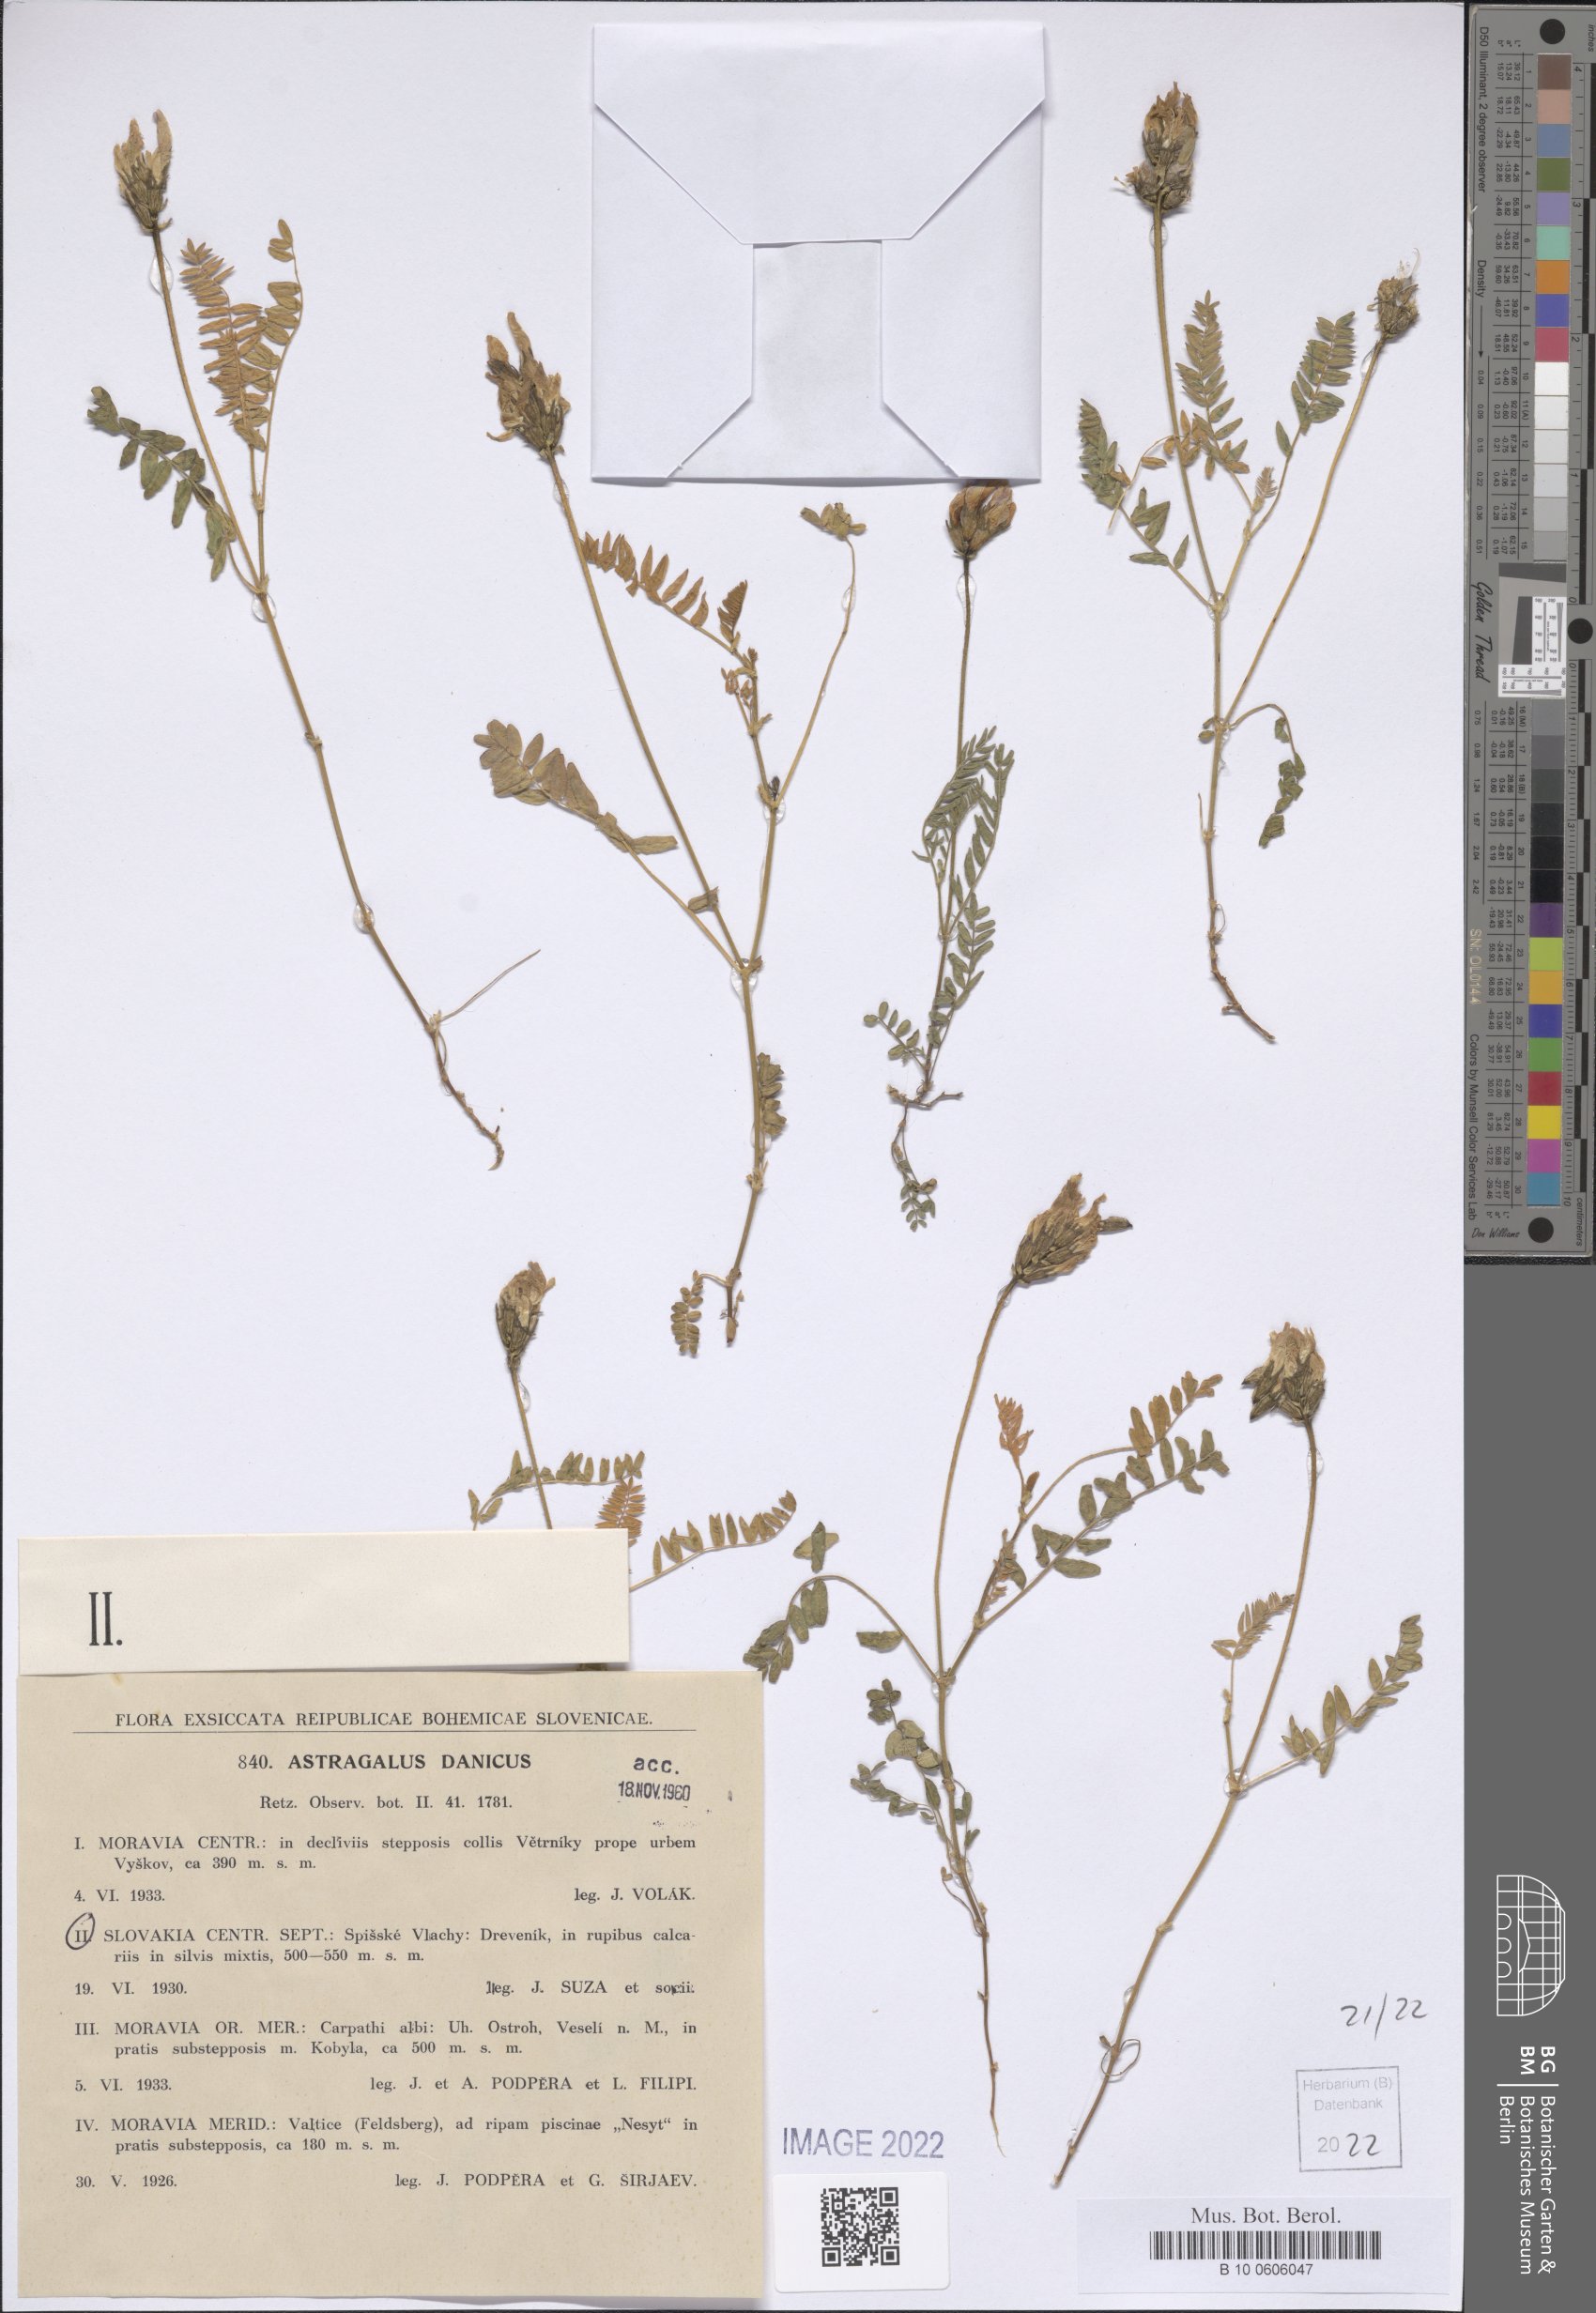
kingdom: Plantae
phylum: Tracheophyta
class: Magnoliopsida
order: Fabales
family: Fabaceae
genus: Astragalus
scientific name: Astragalus danicus
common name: Purple milk-vetch
